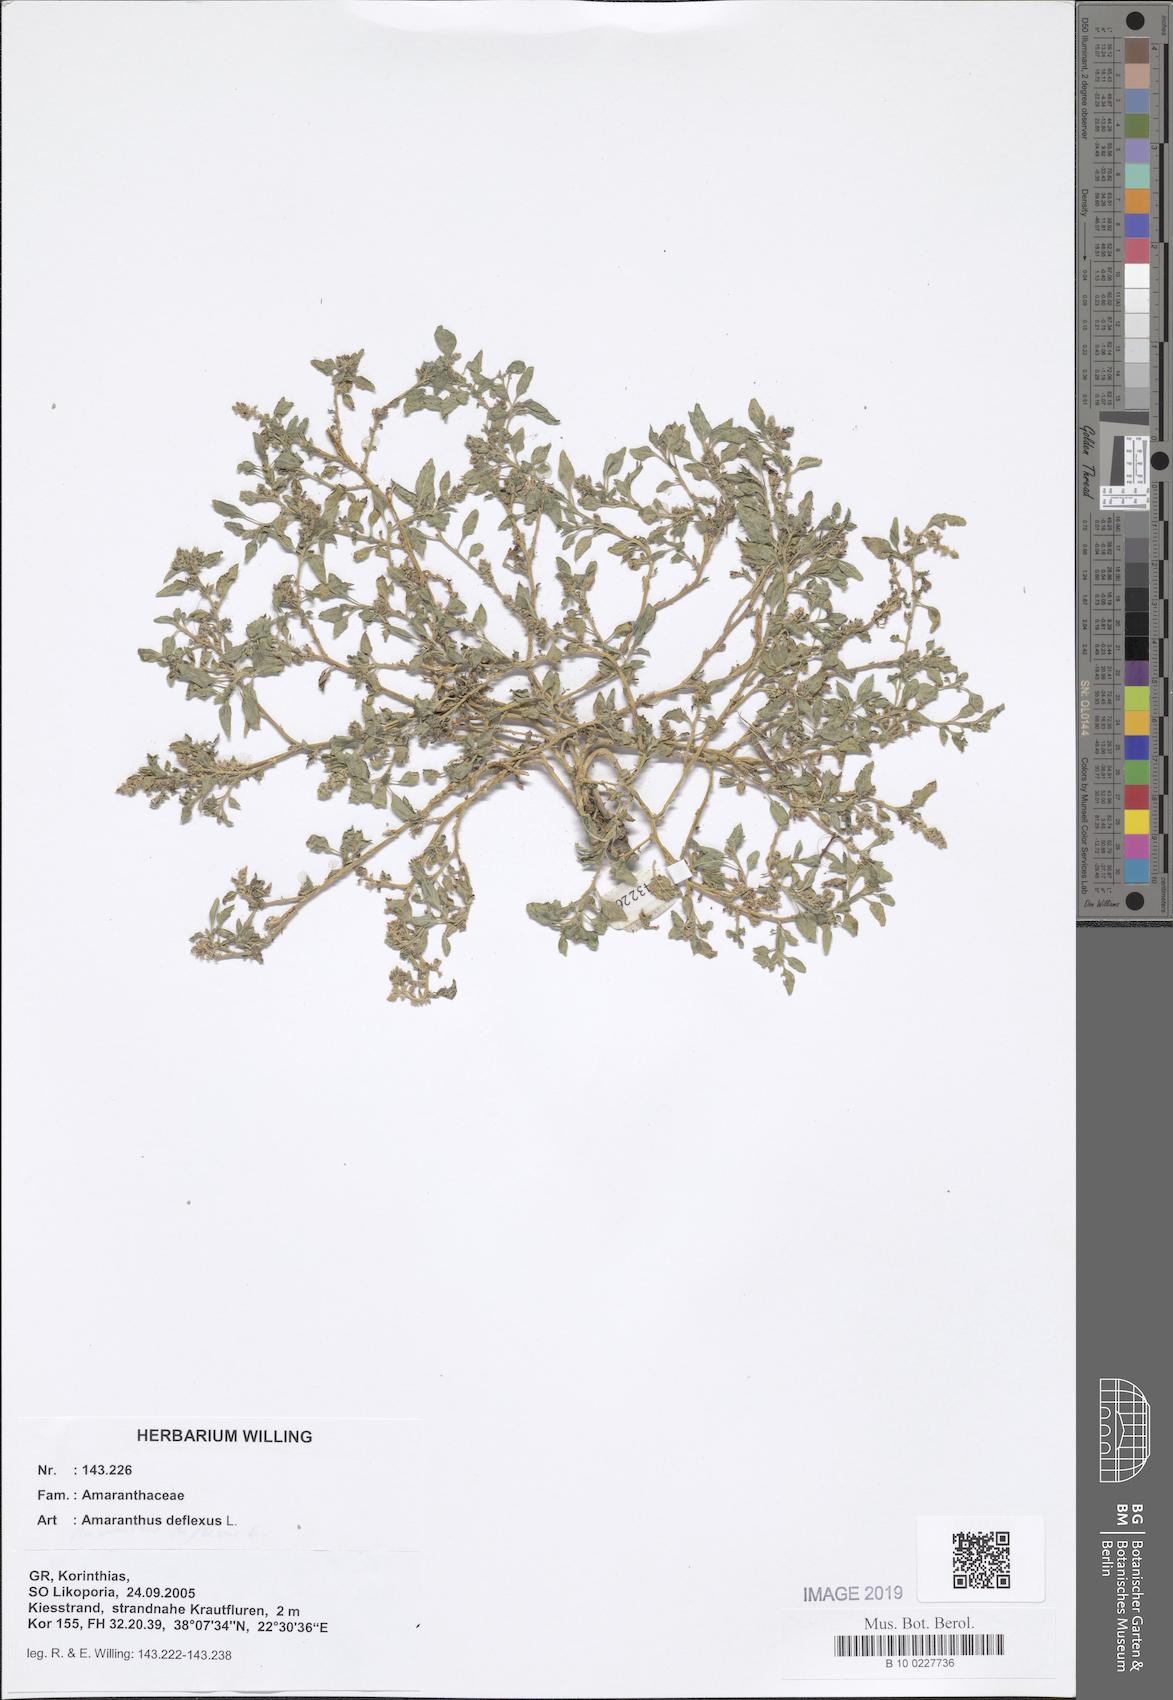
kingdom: Plantae
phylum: Tracheophyta
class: Magnoliopsida
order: Caryophyllales
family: Amaranthaceae
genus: Amaranthus
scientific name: Amaranthus deflexus
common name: Perennial pigweed
